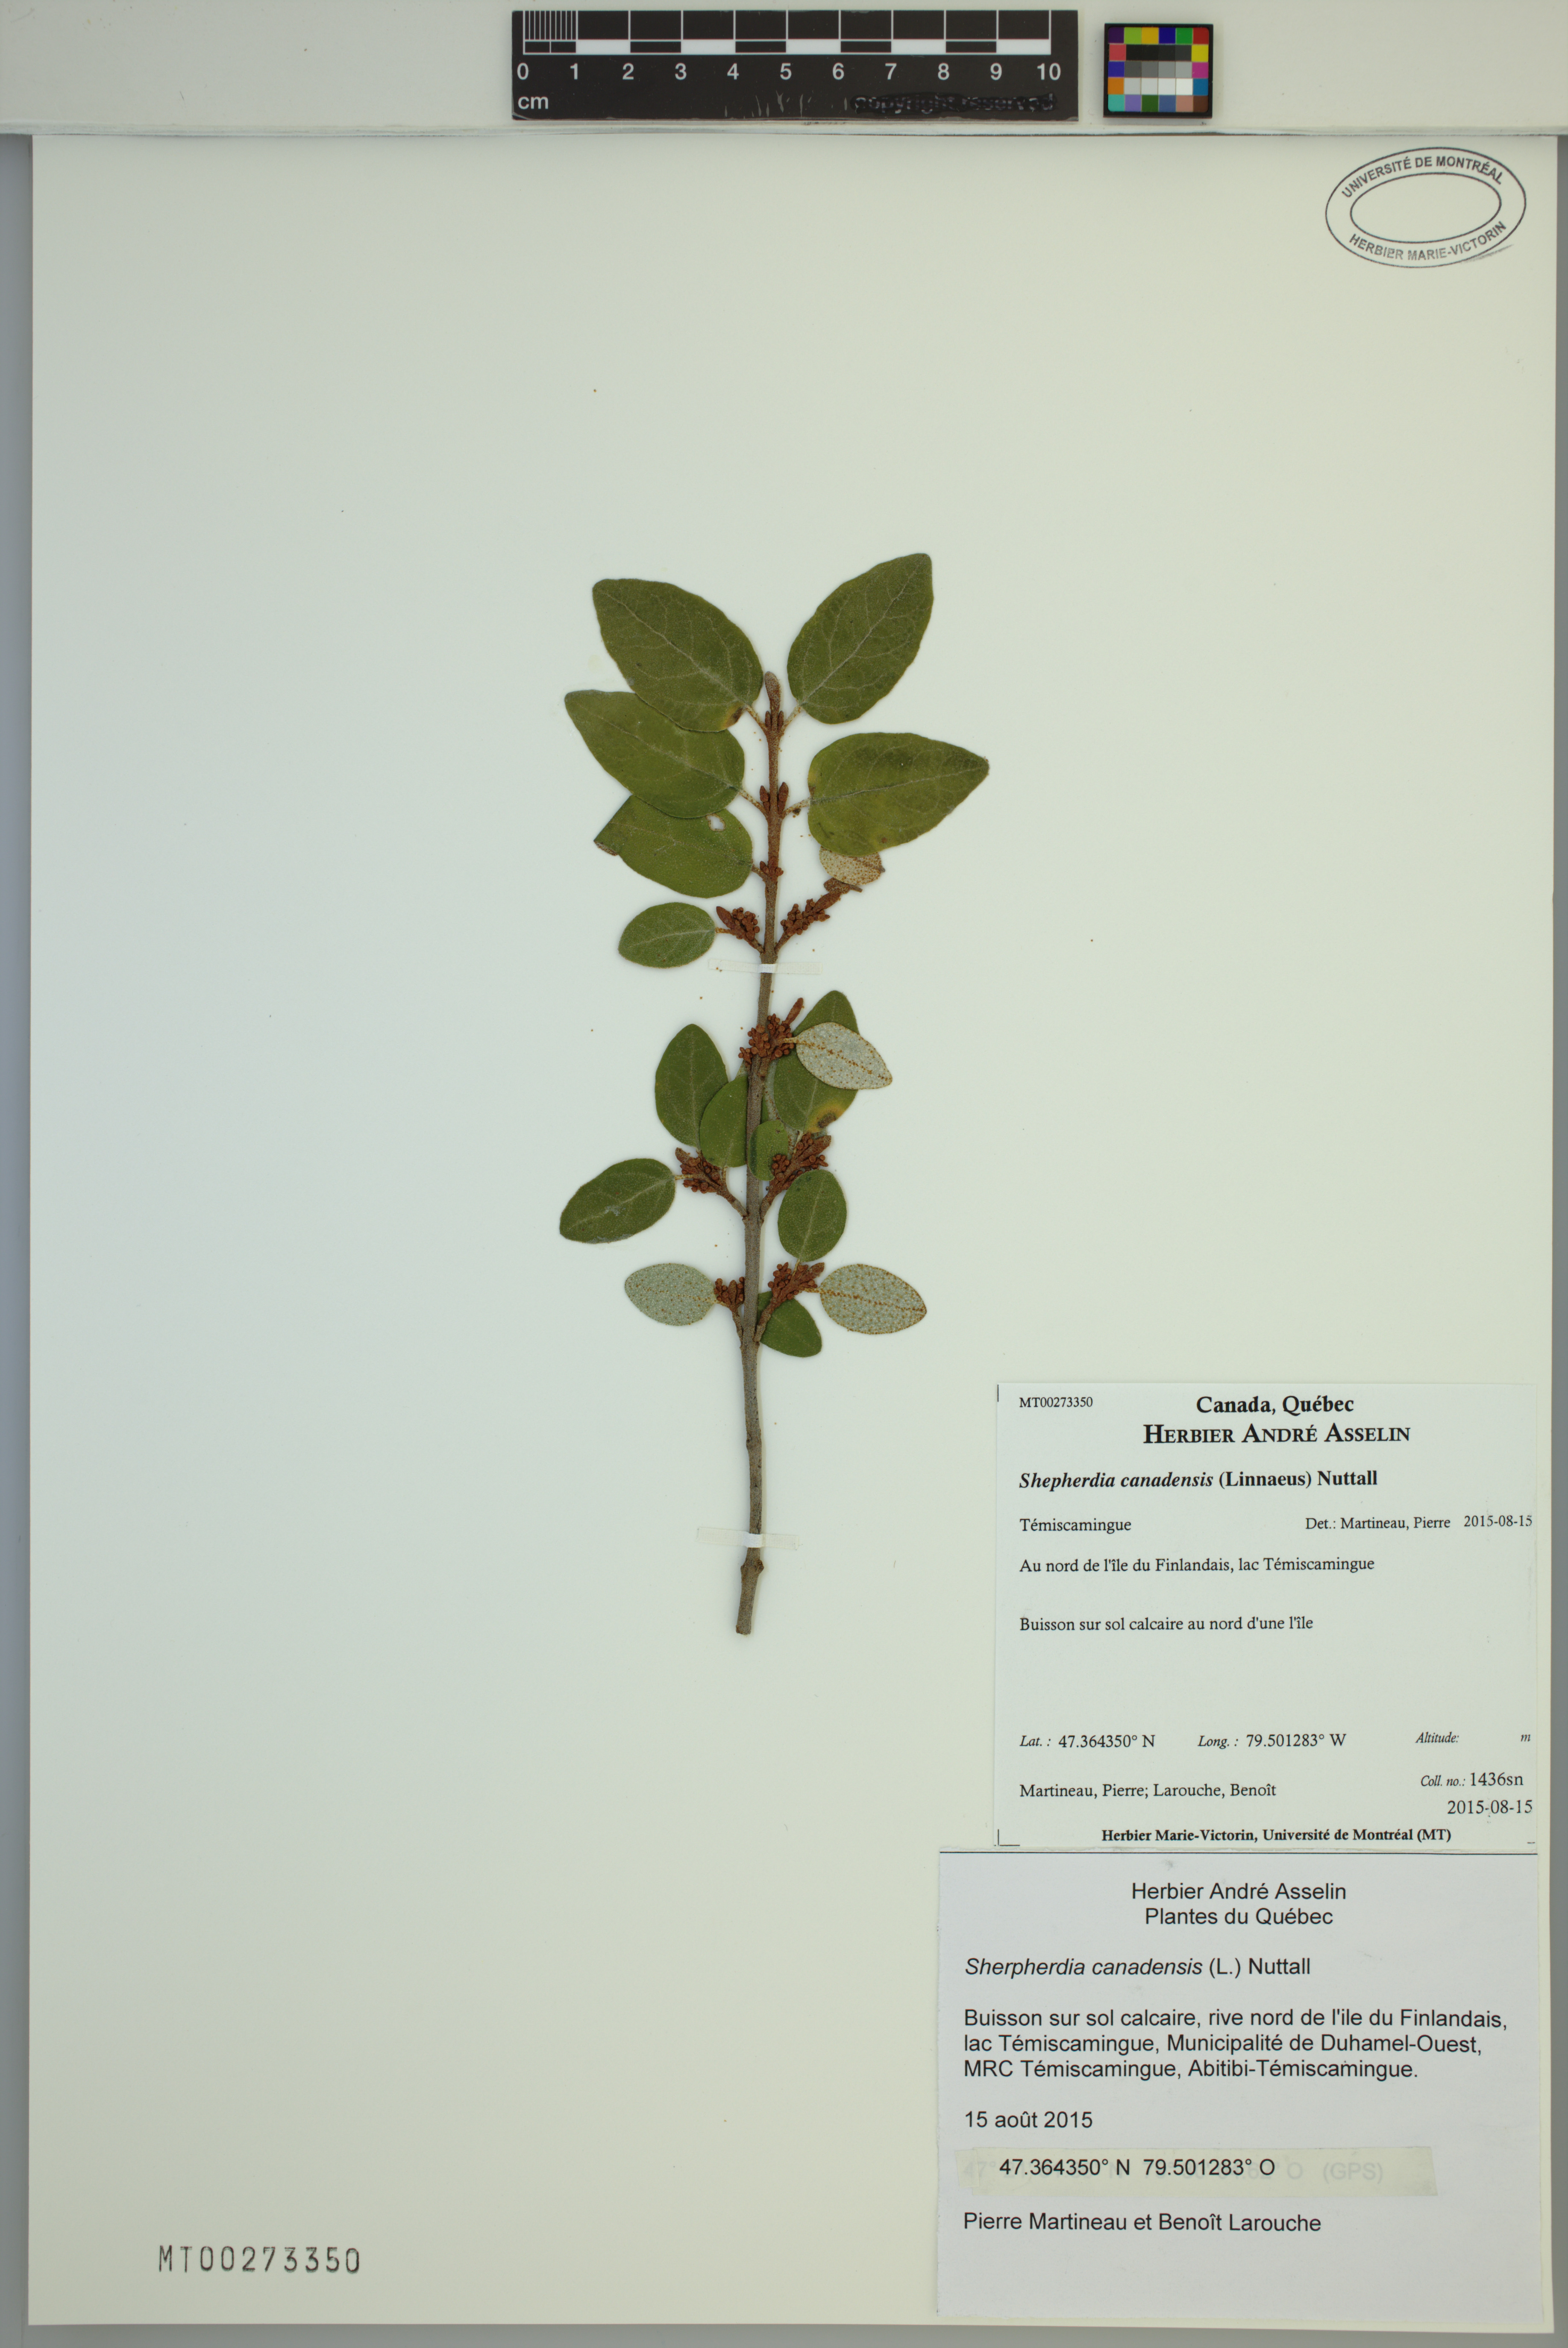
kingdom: Plantae
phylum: Tracheophyta
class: Magnoliopsida
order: Rosales
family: Elaeagnaceae
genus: Shepherdia
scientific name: Shepherdia canadensis
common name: Soapberry
